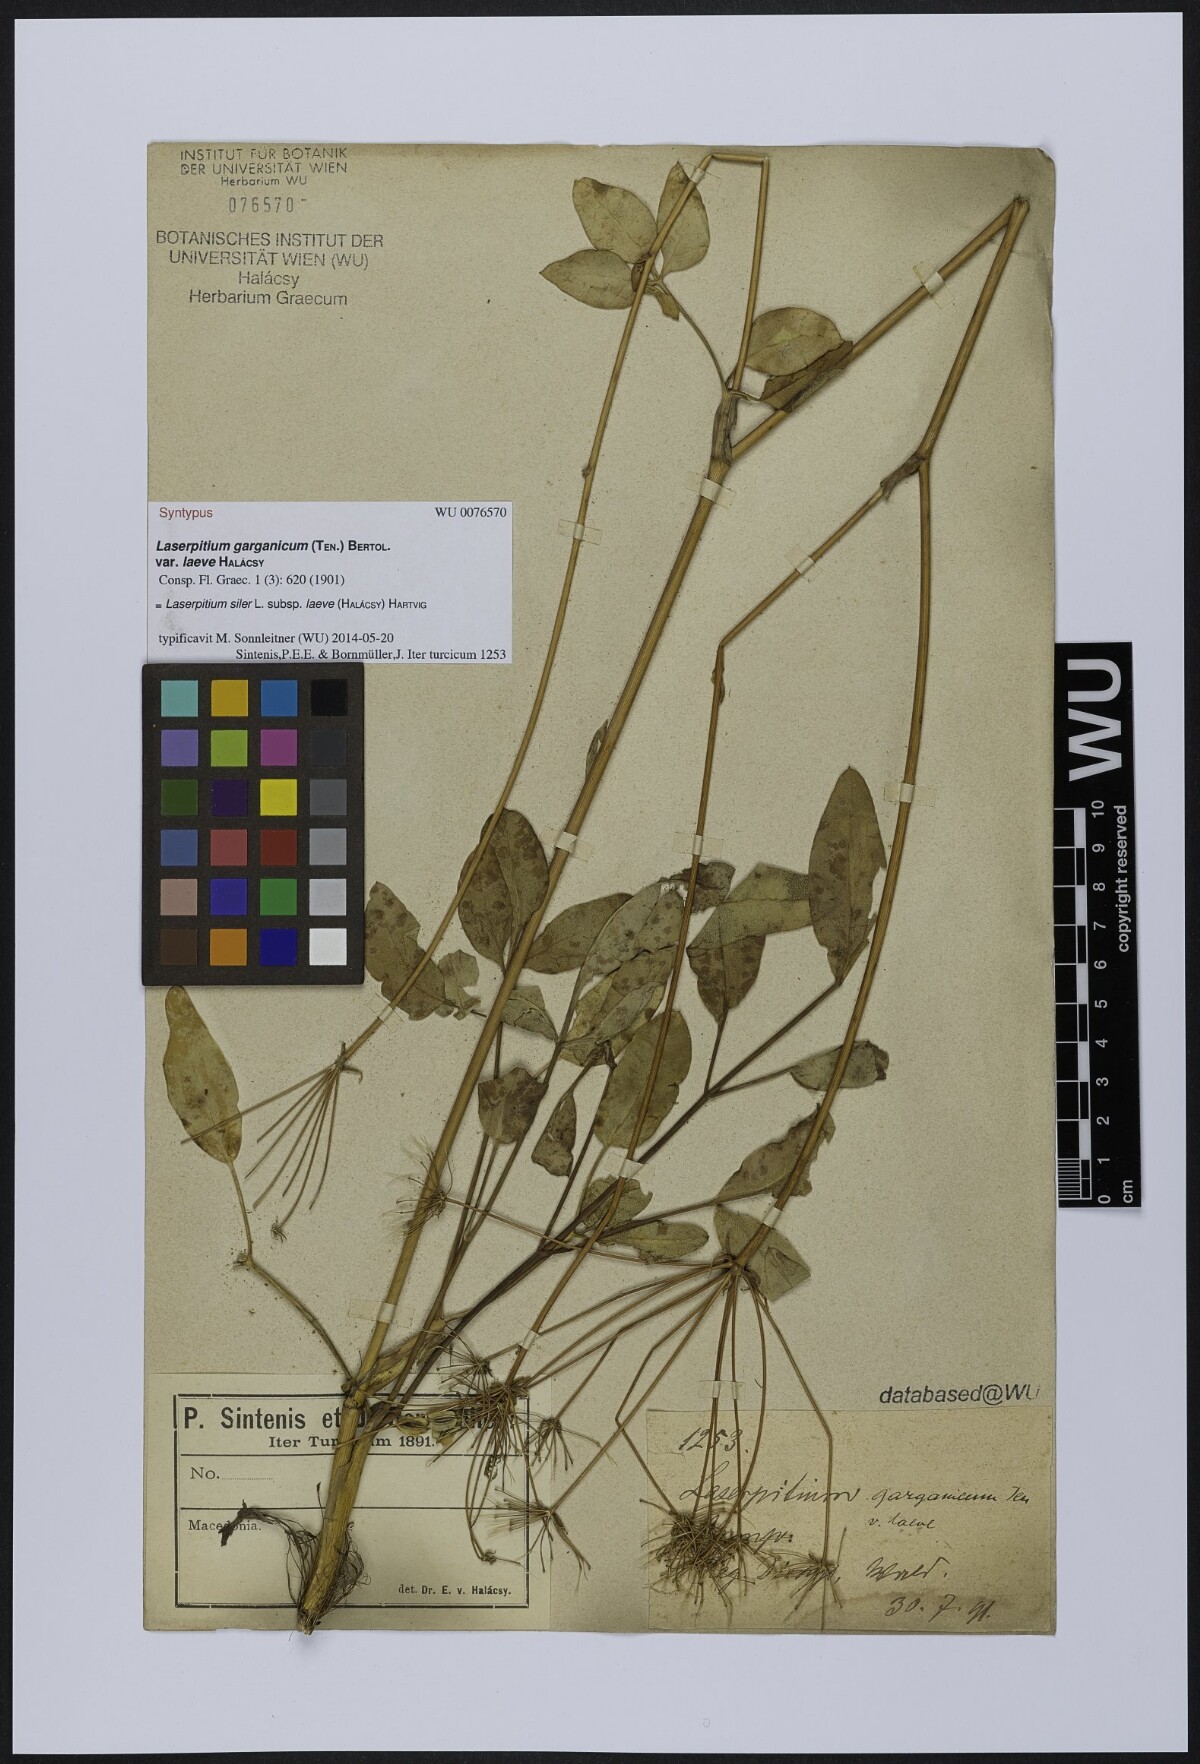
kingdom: Plantae
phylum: Tracheophyta
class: Magnoliopsida
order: Apiales
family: Apiaceae
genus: Siler
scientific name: Siler zernyi
